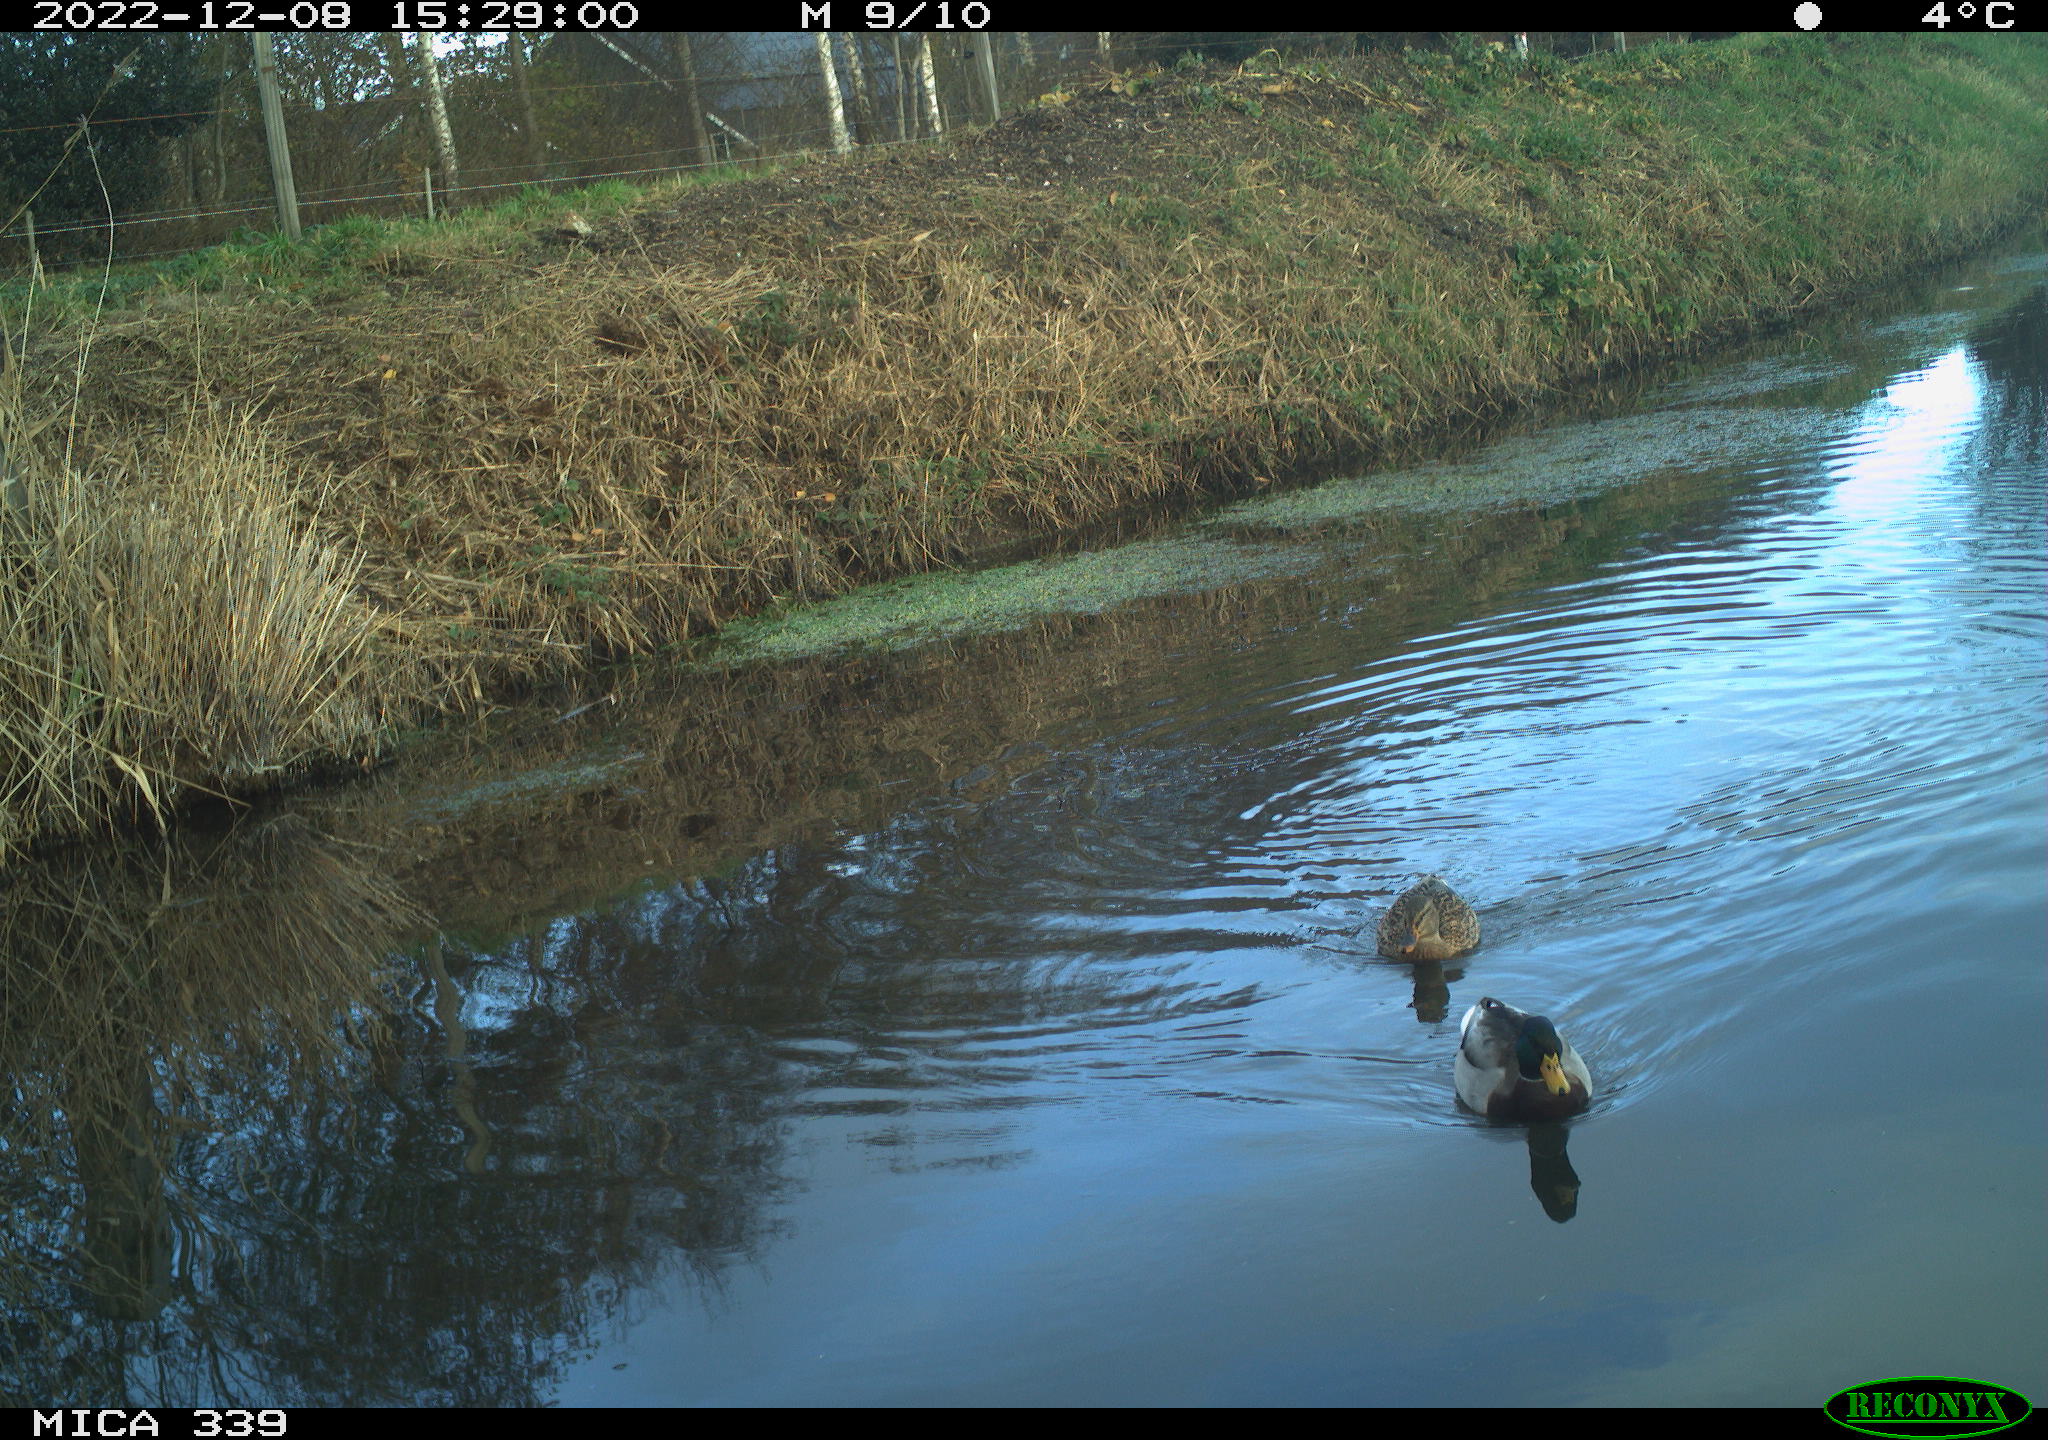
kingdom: Animalia
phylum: Chordata
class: Aves
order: Anseriformes
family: Anatidae
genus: Anas
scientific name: Anas
